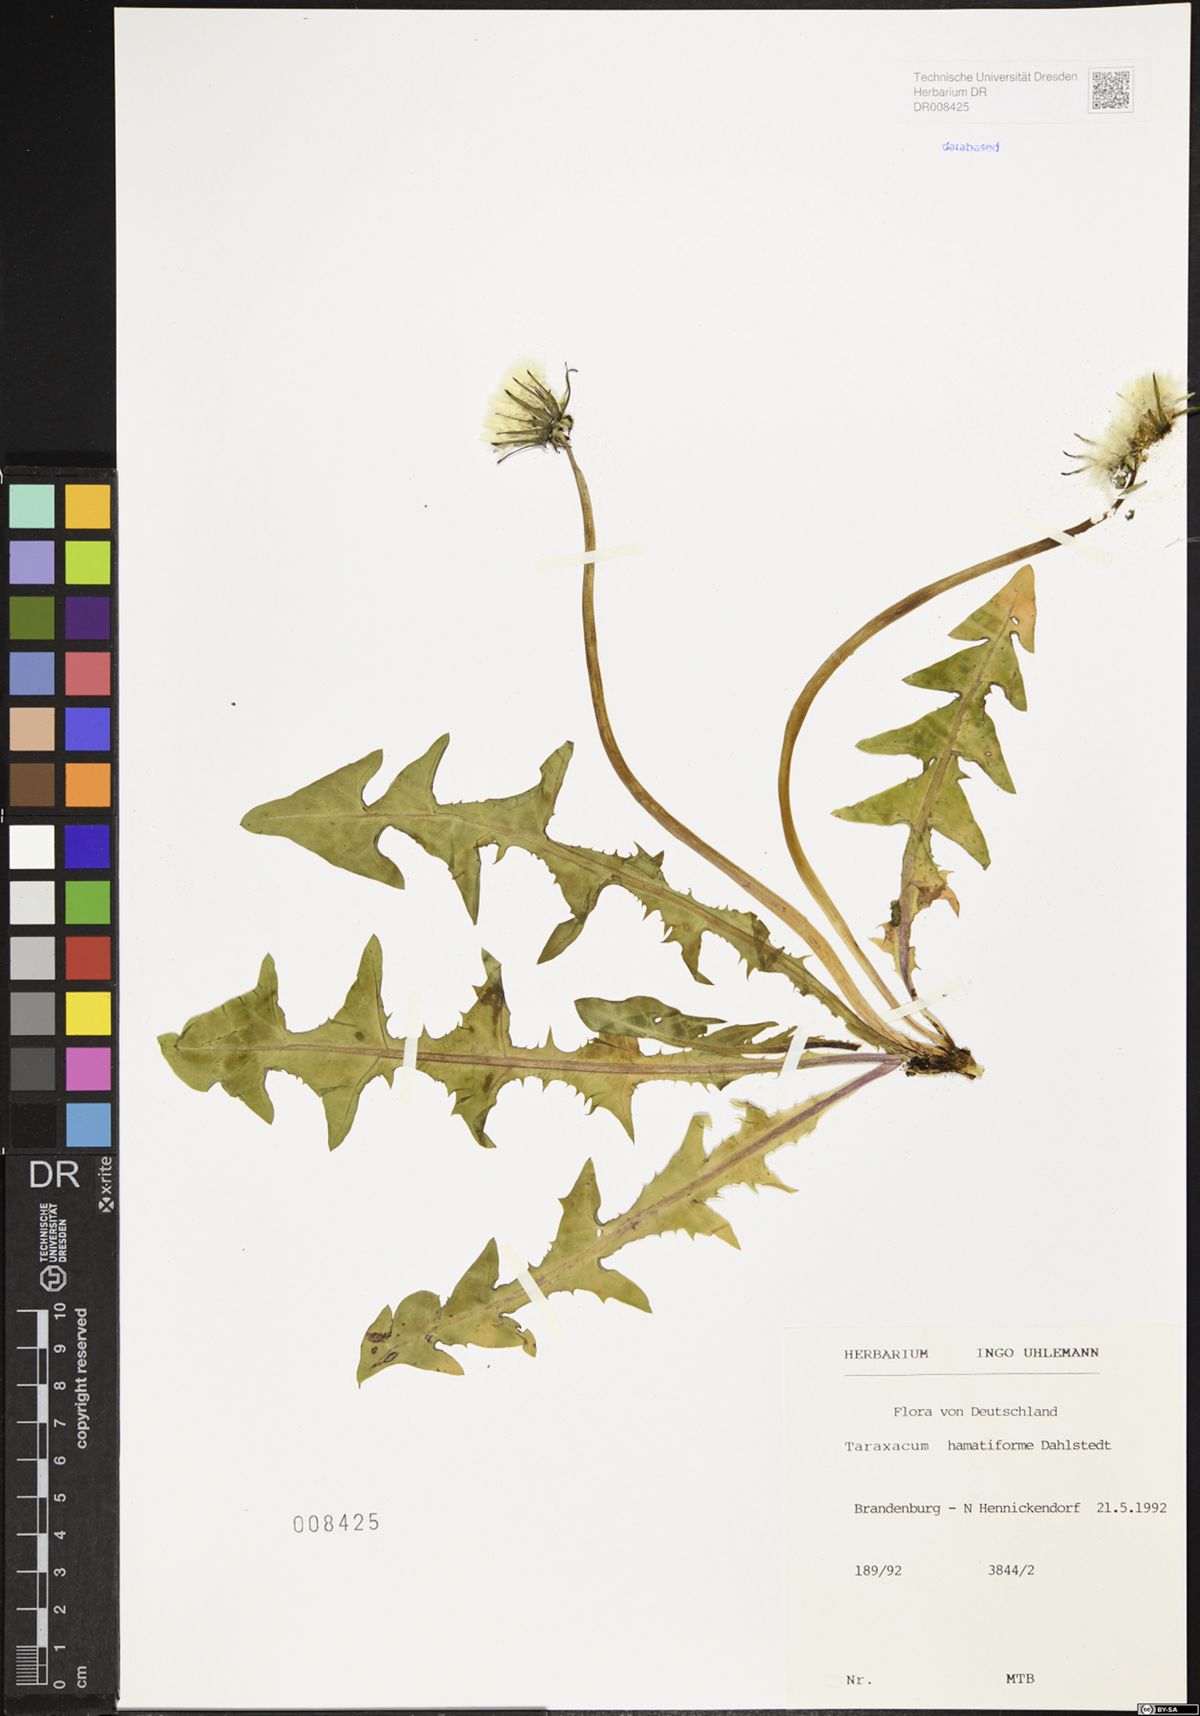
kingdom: Plantae
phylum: Tracheophyta
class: Magnoliopsida
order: Asterales
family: Asteraceae
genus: Taraxacum
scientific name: Taraxacum hamatiforme
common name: Asymmetrical hook-lobed dandelion
